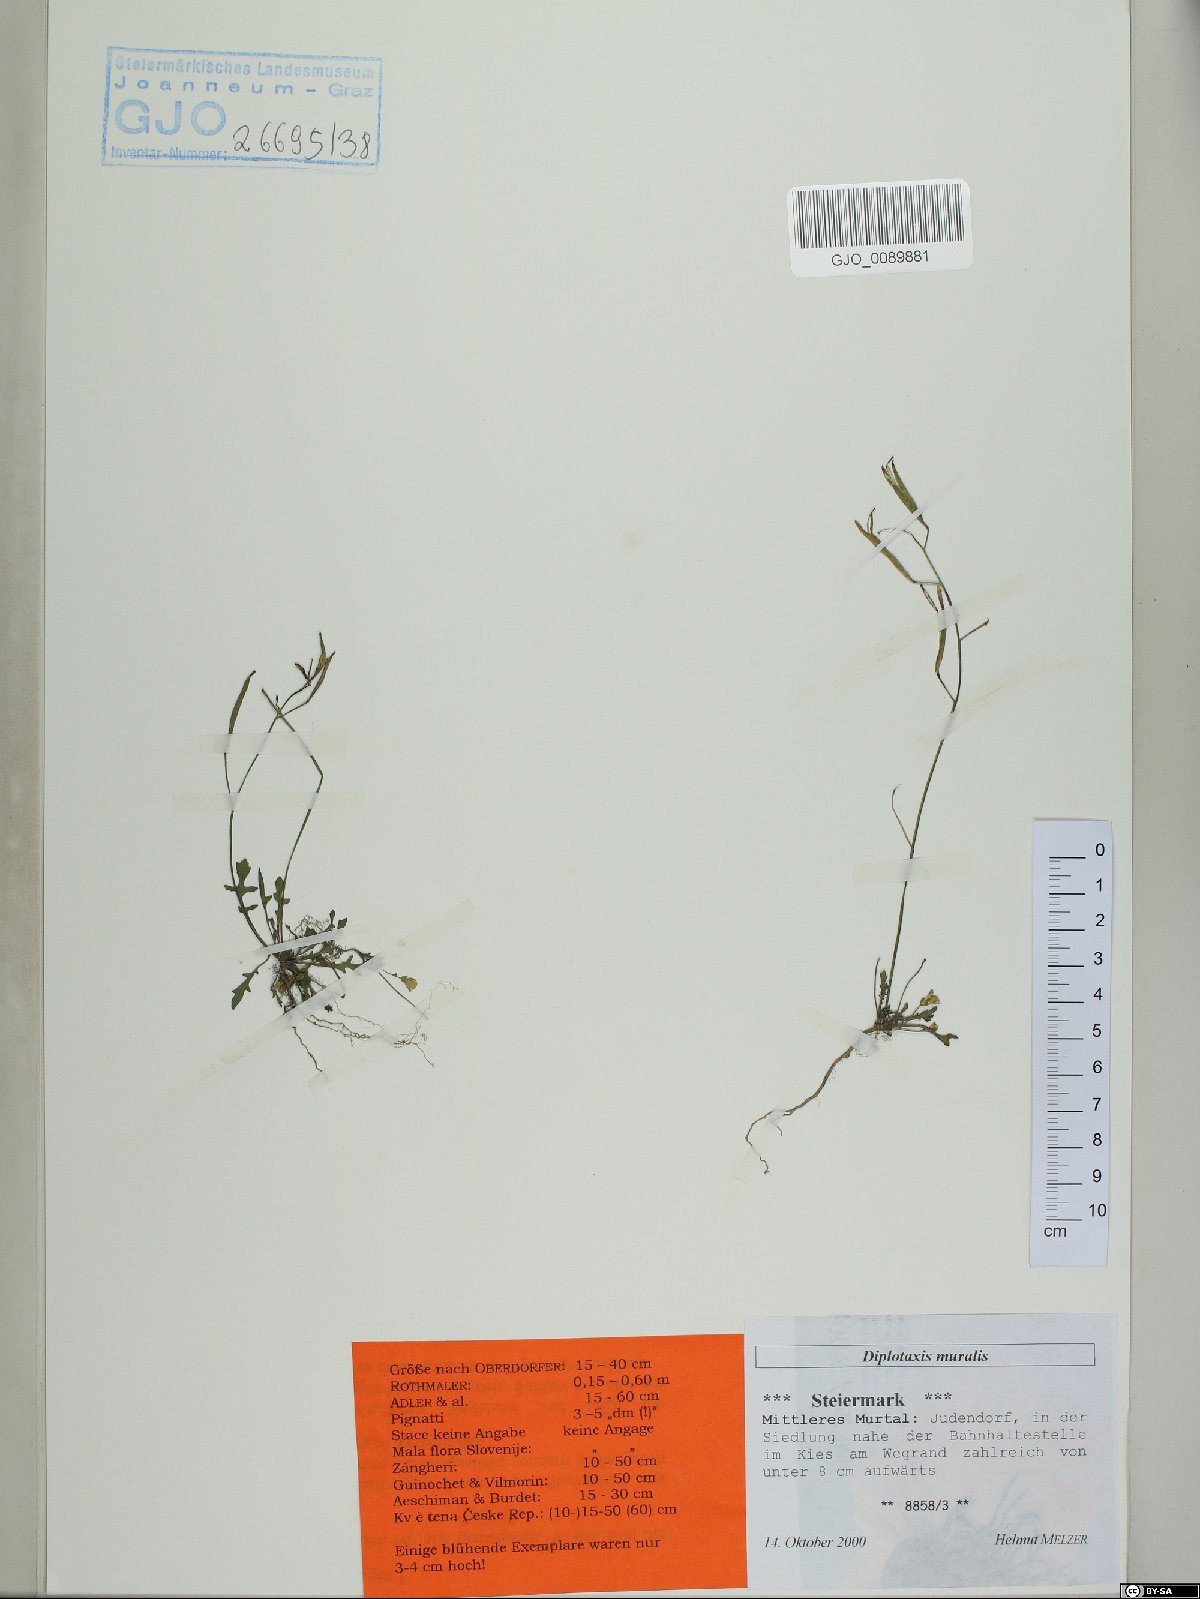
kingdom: Plantae
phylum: Tracheophyta
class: Magnoliopsida
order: Brassicales
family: Brassicaceae
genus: Diplotaxis
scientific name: Diplotaxis muralis
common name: Annual wall-rocket
